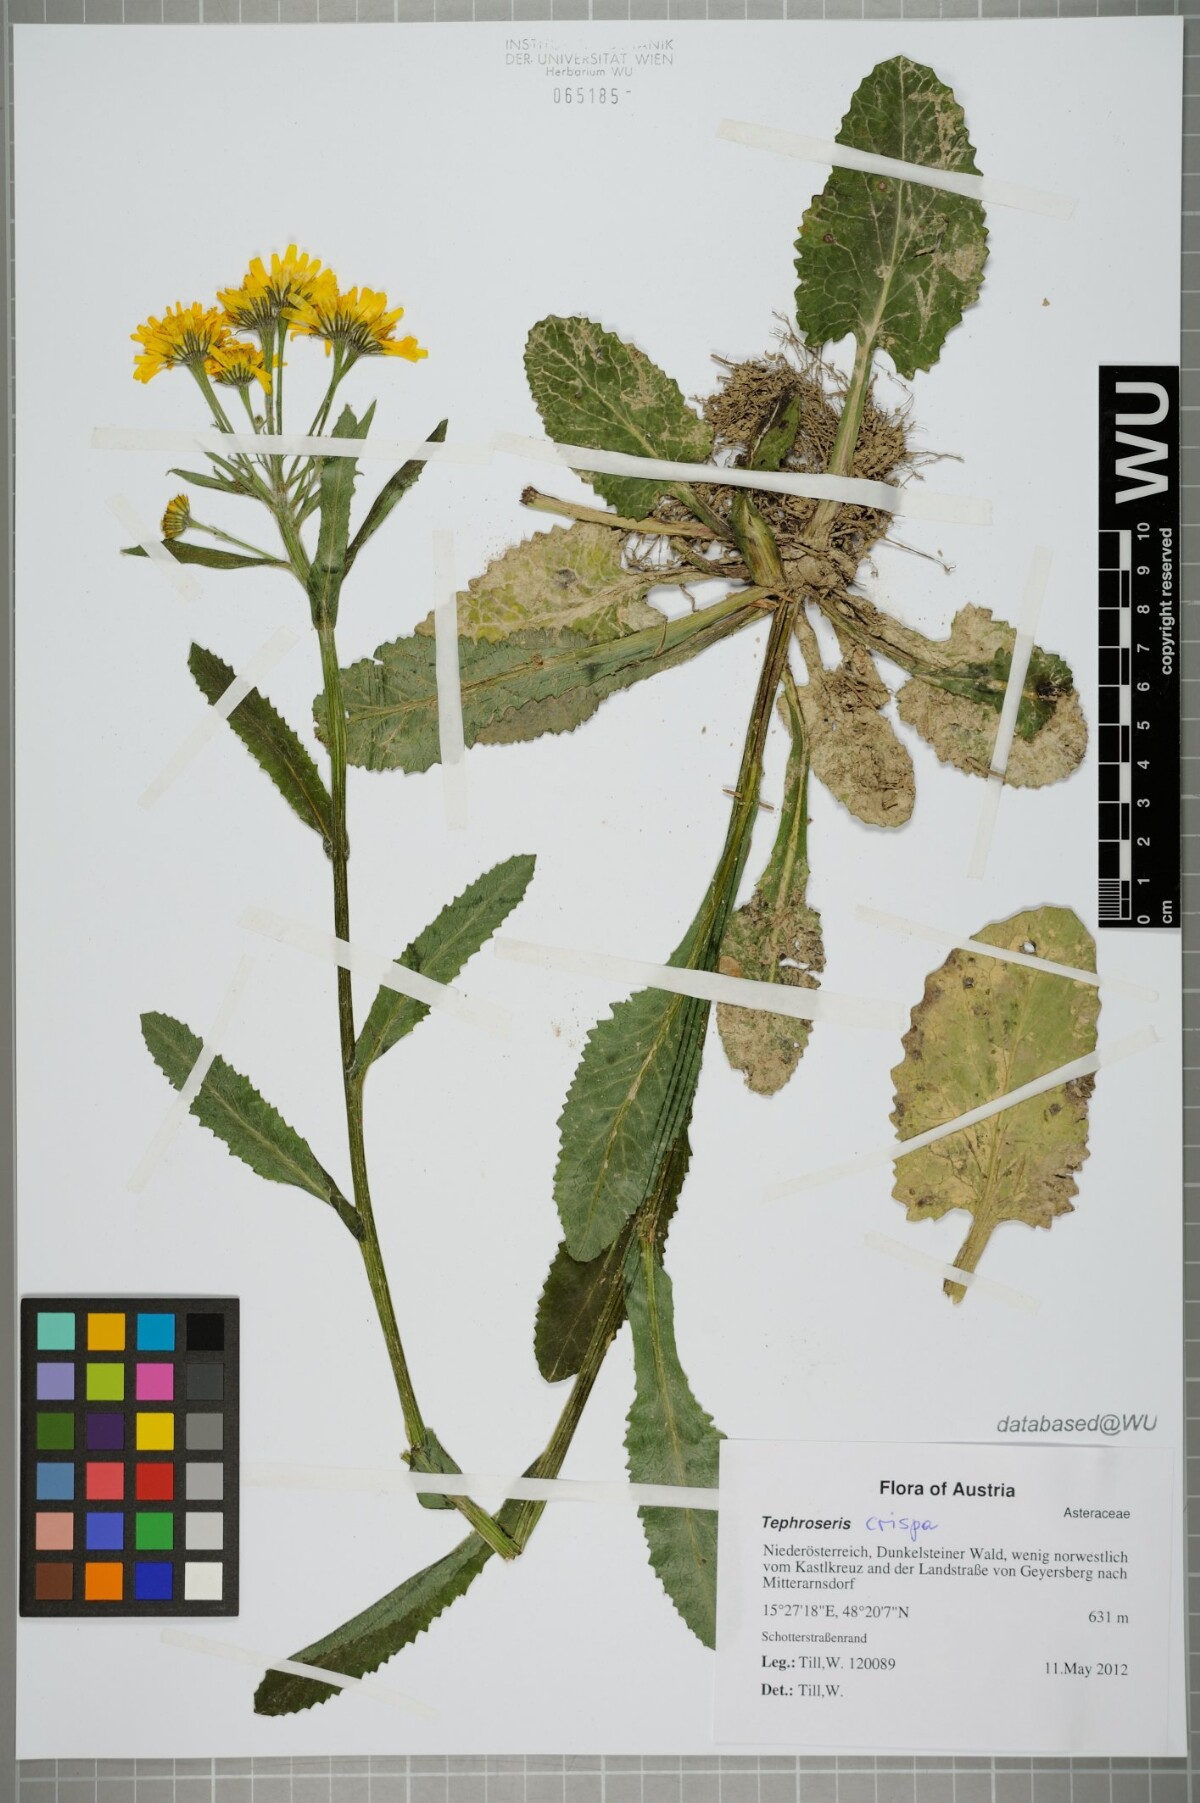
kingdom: Plantae
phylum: Tracheophyta
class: Magnoliopsida
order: Asterales
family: Asteraceae
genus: Tephroseris
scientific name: Tephroseris crispa
